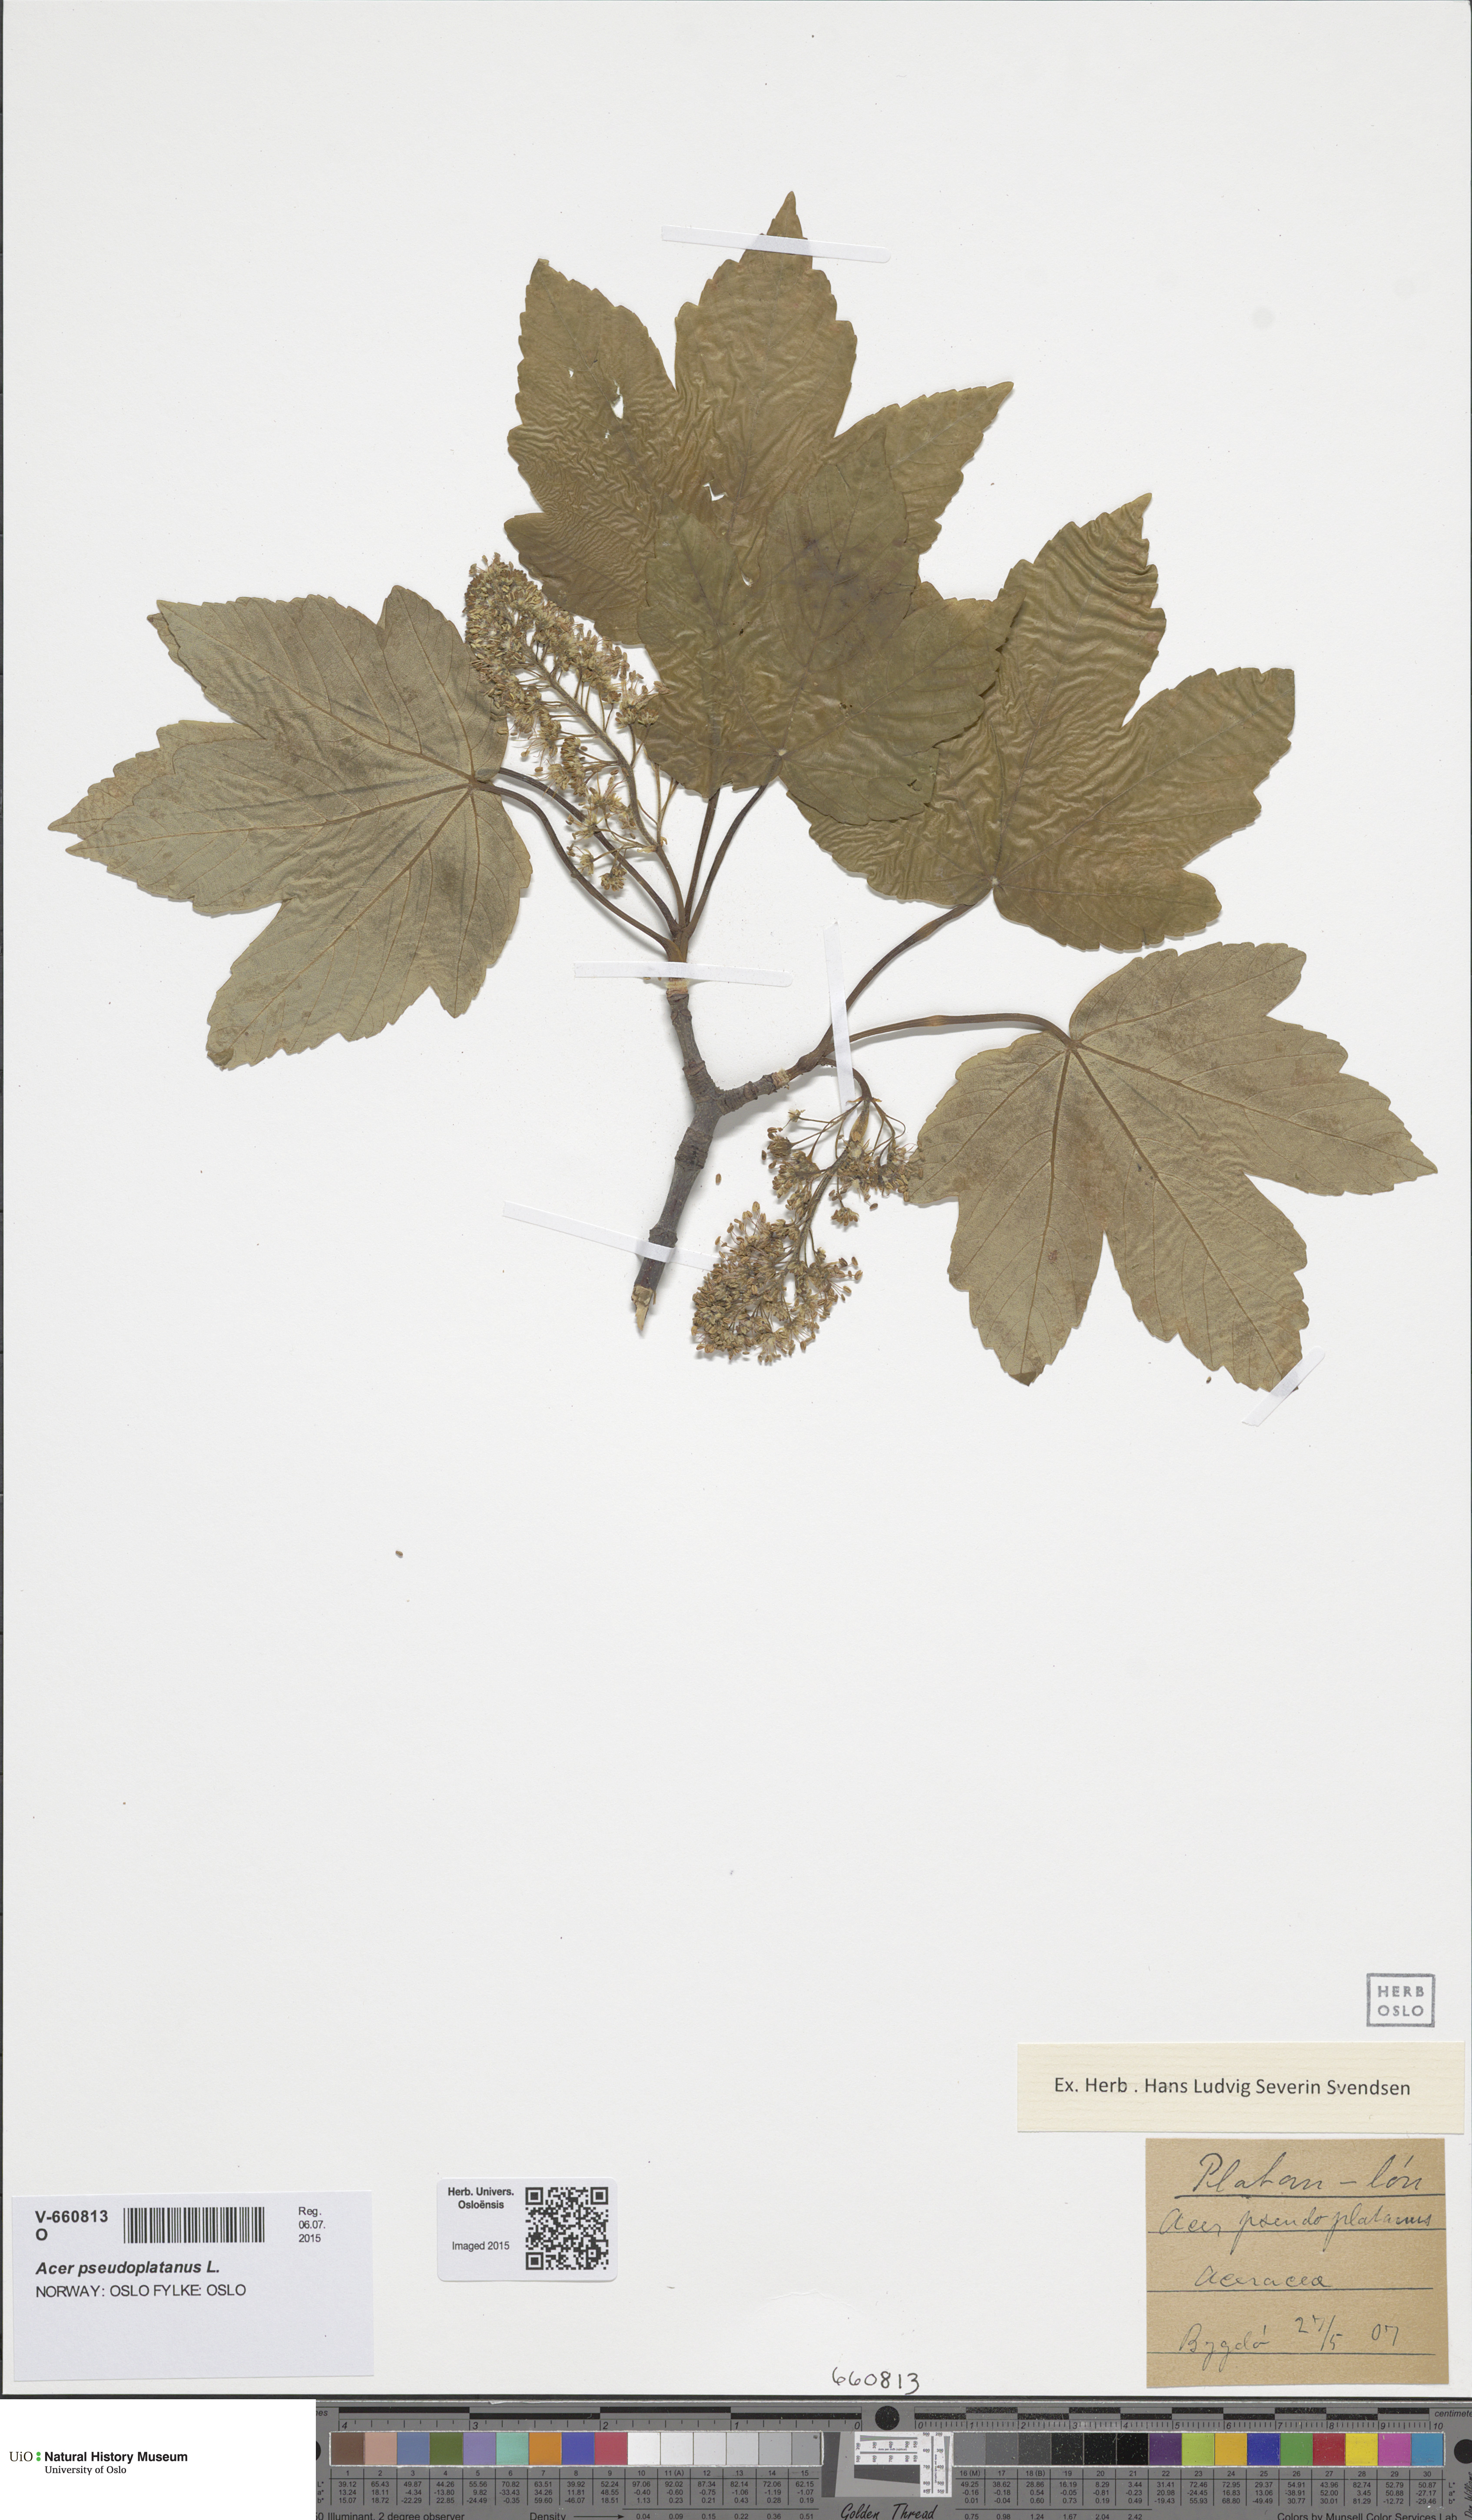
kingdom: Plantae
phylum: Tracheophyta
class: Magnoliopsida
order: Sapindales
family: Sapindaceae
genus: Acer
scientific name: Acer pseudoplatanus
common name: Sycamore
